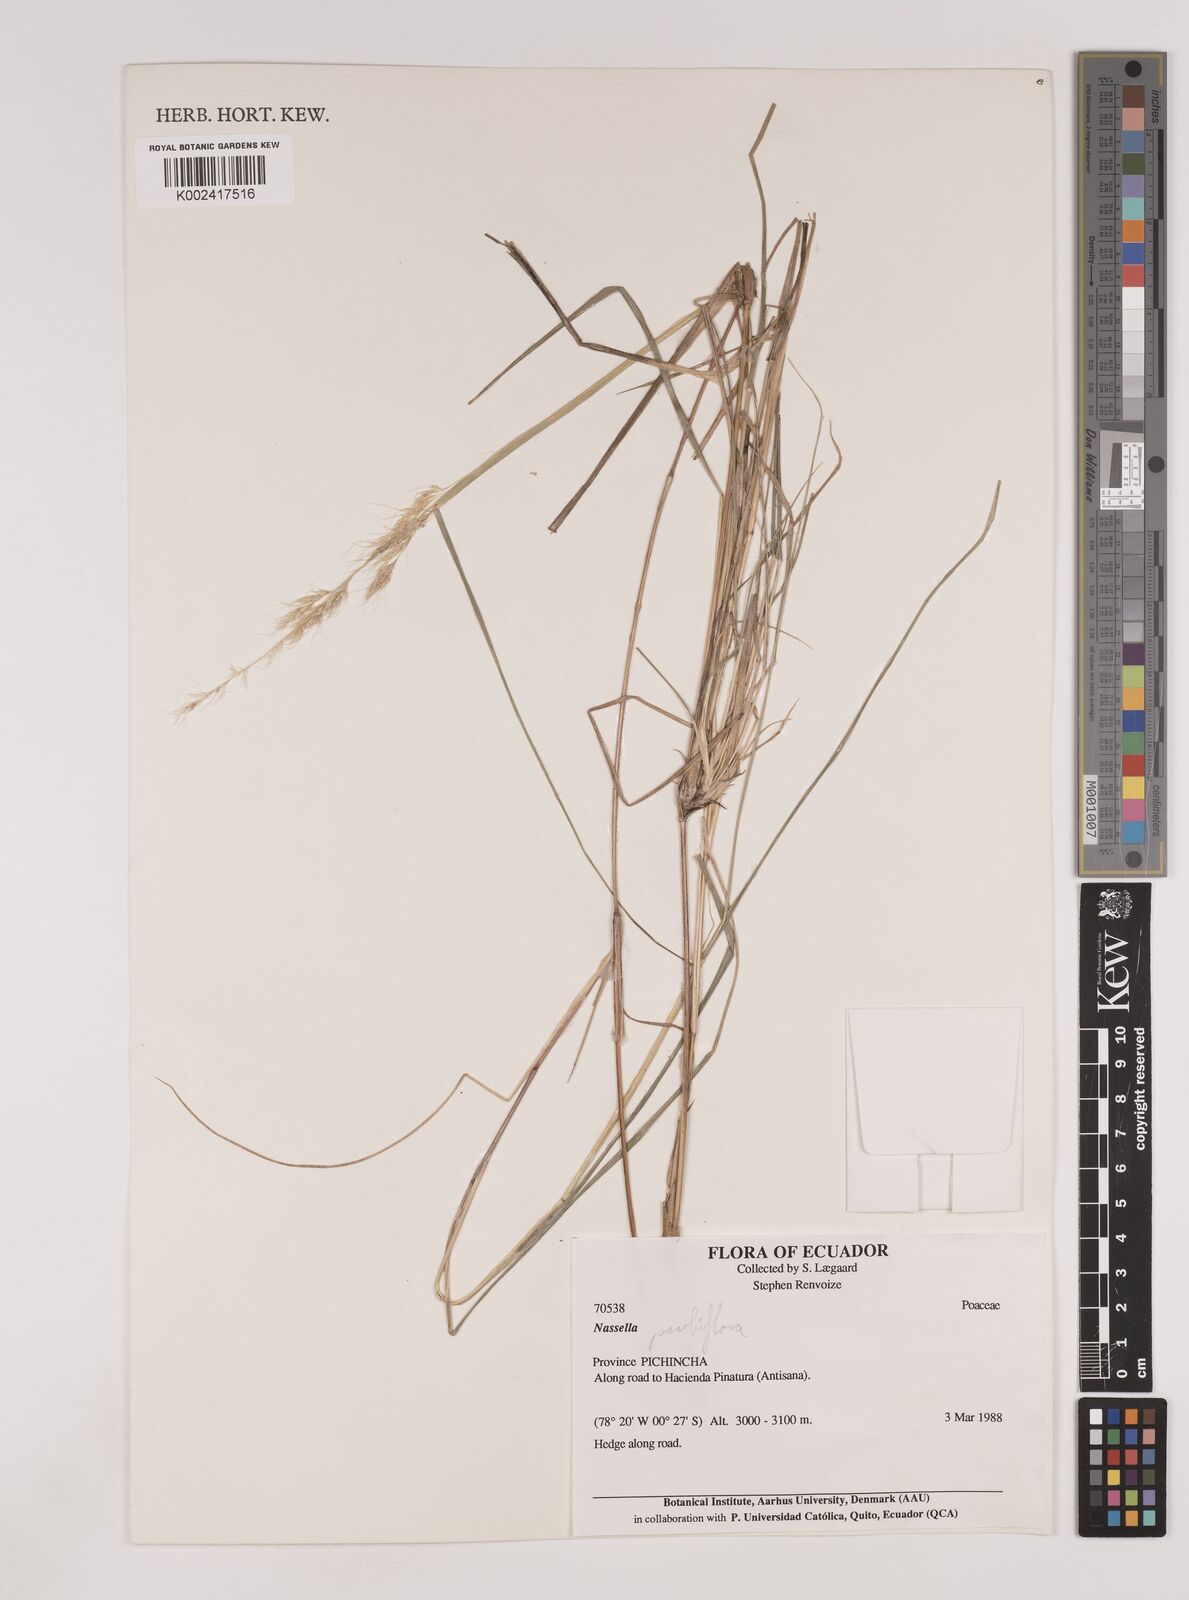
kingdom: Plantae
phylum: Tracheophyta
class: Liliopsida
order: Poales
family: Poaceae
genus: Nassella
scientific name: Nassella pubiflora
